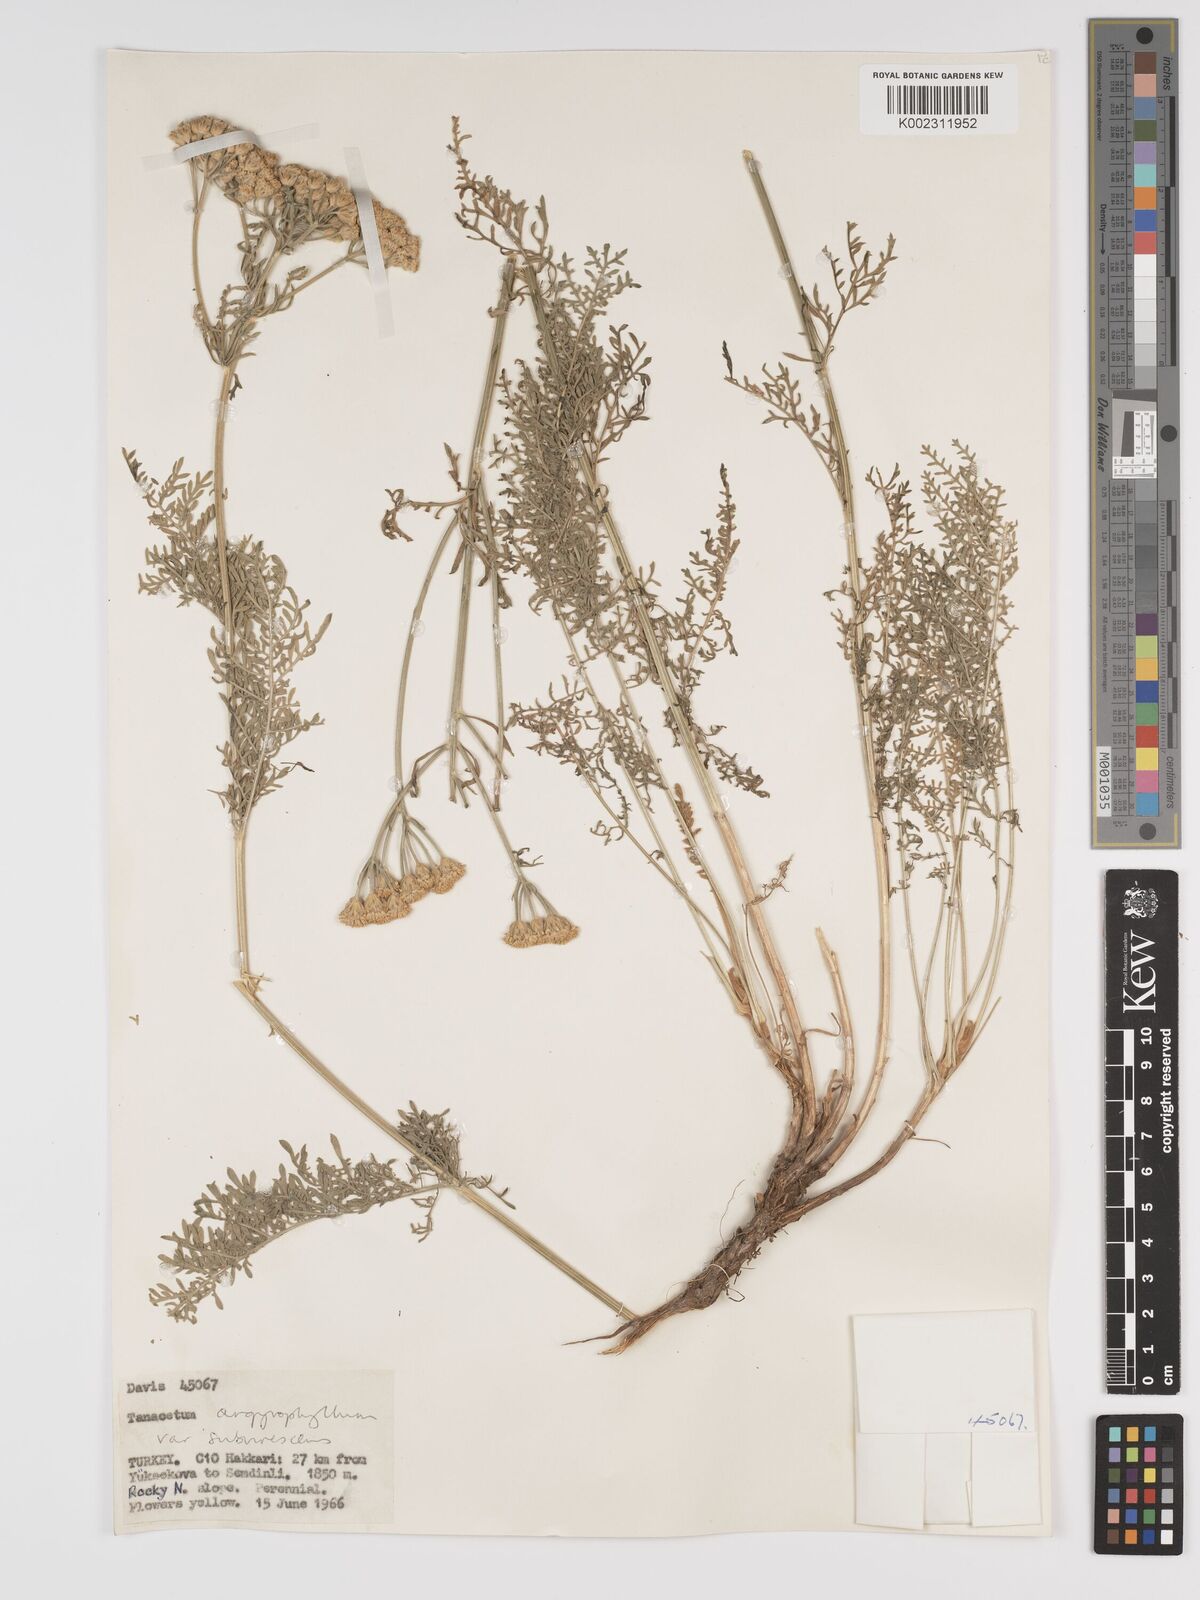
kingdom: Plantae
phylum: Tracheophyta
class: Magnoliopsida
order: Asterales
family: Asteraceae
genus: Tanacetum
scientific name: Tanacetum polycephalum
